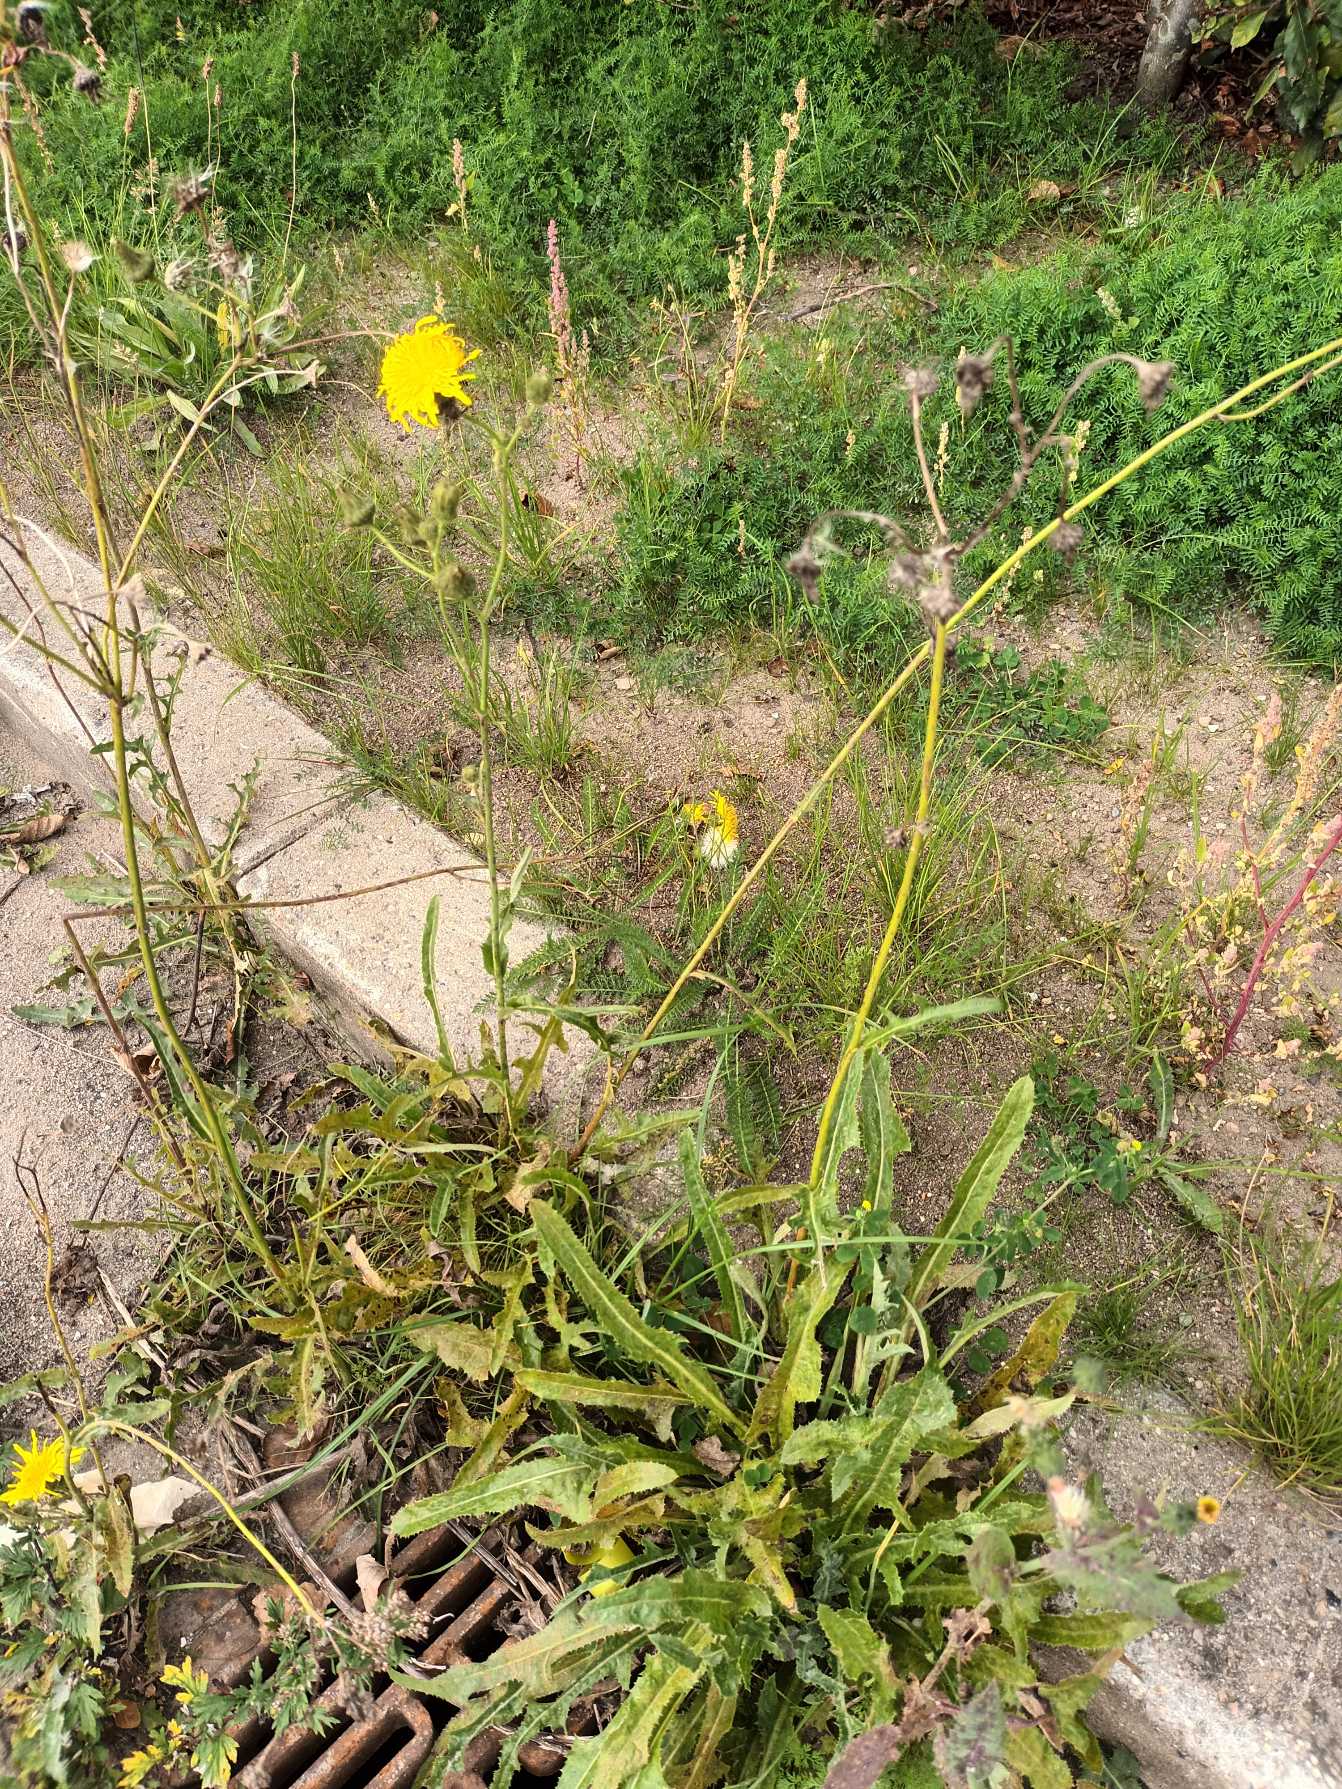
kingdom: Plantae
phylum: Tracheophyta
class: Magnoliopsida
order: Asterales
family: Asteraceae
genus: Sonchus
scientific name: Sonchus arvensis
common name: Ager-svinemælk
